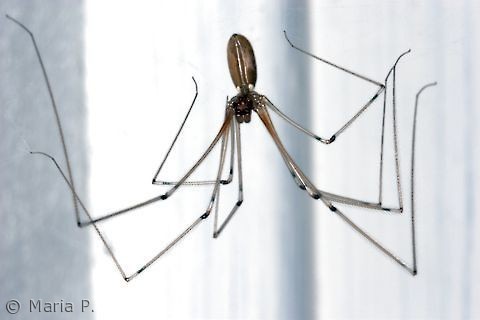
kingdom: Animalia
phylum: Arthropoda
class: Arachnida
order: Araneae
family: Pholcidae
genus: Pholcus
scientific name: Pholcus phalangioides
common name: Mejeredderkop
